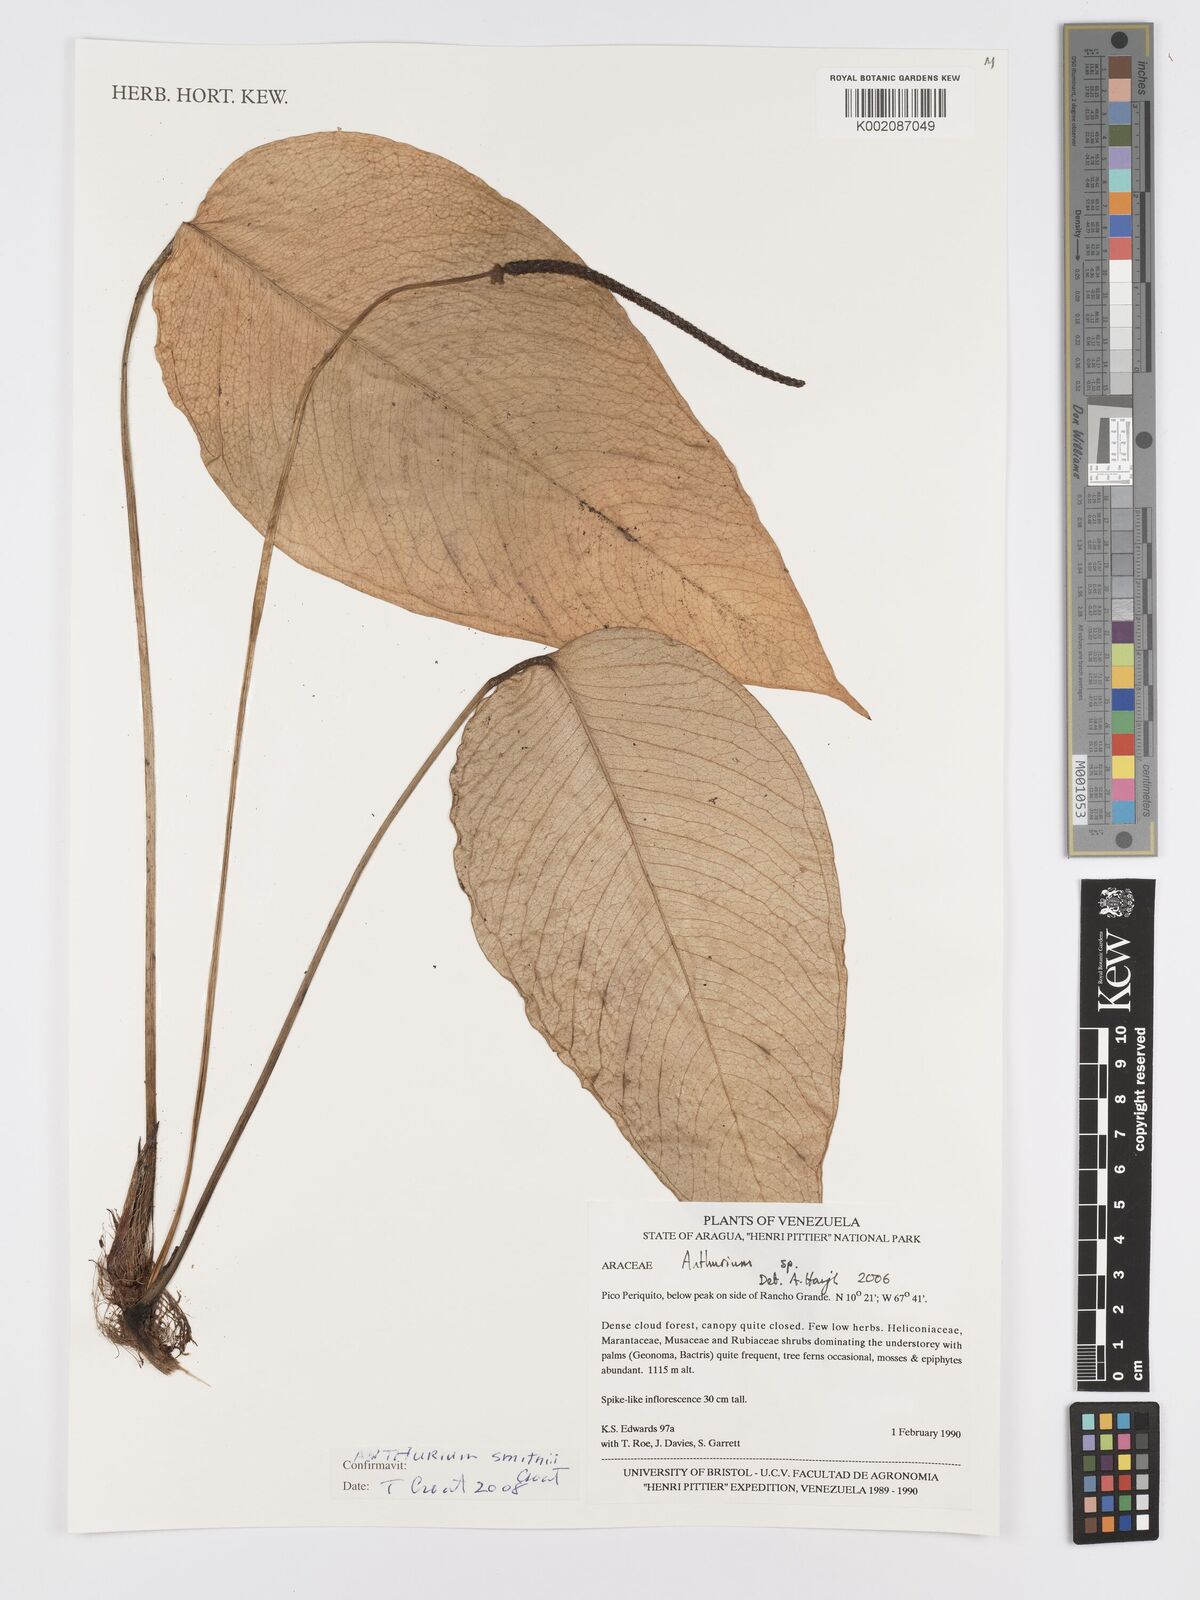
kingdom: Plantae
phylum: Tracheophyta
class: Liliopsida
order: Alismatales
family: Araceae
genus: Anthurium
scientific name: Anthurium smithii
